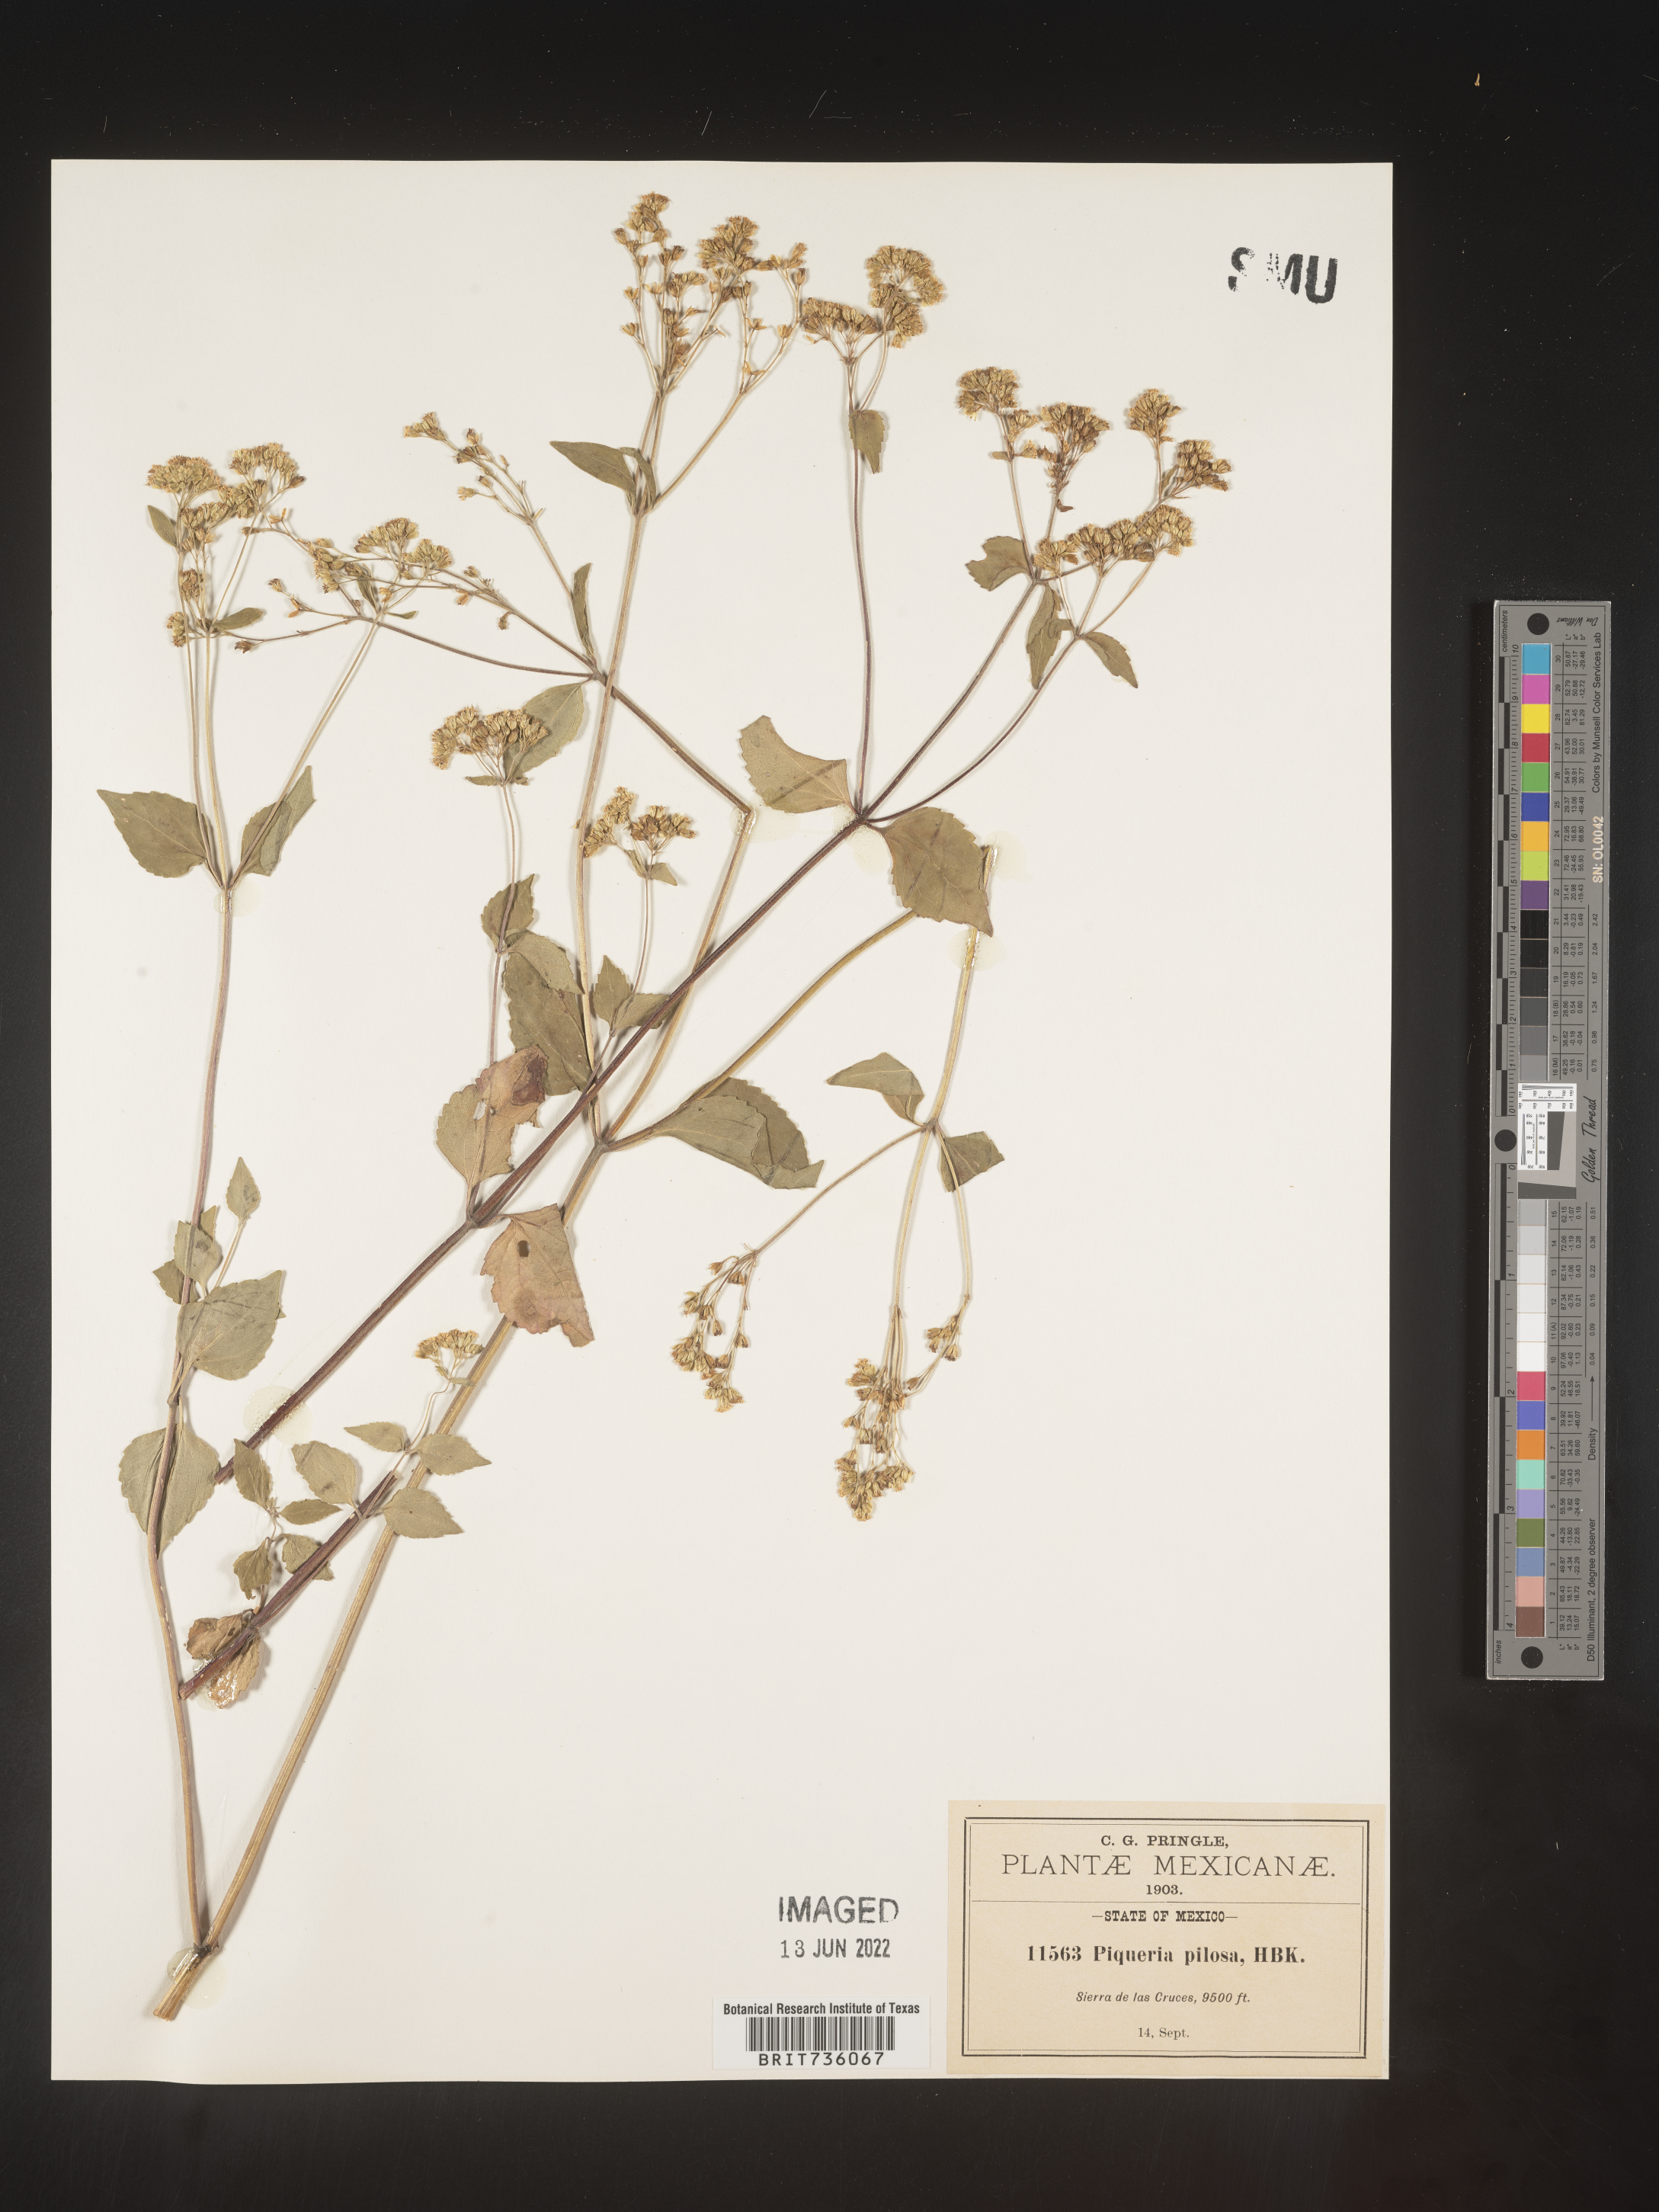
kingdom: Plantae
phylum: Tracheophyta
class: Magnoliopsida
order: Asterales
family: Asteraceae
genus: Piqueria
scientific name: Piqueria
